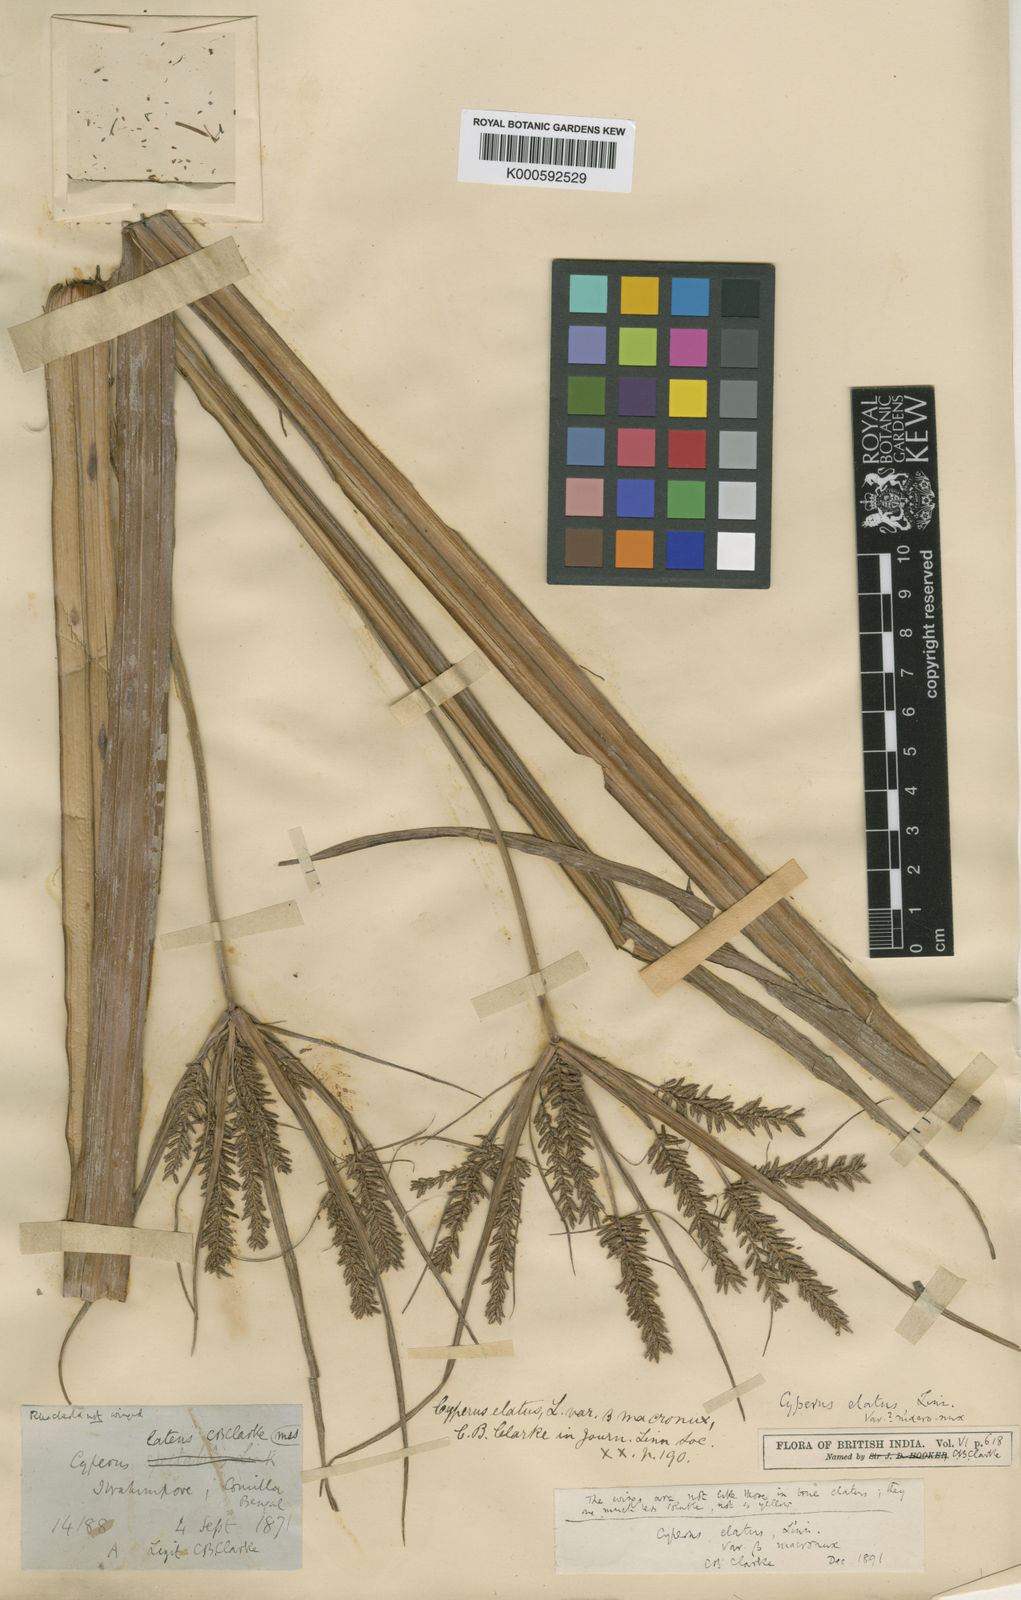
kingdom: Plantae
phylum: Tracheophyta
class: Liliopsida
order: Poales
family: Cyperaceae
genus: Cyperus
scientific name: Cyperus elatus
